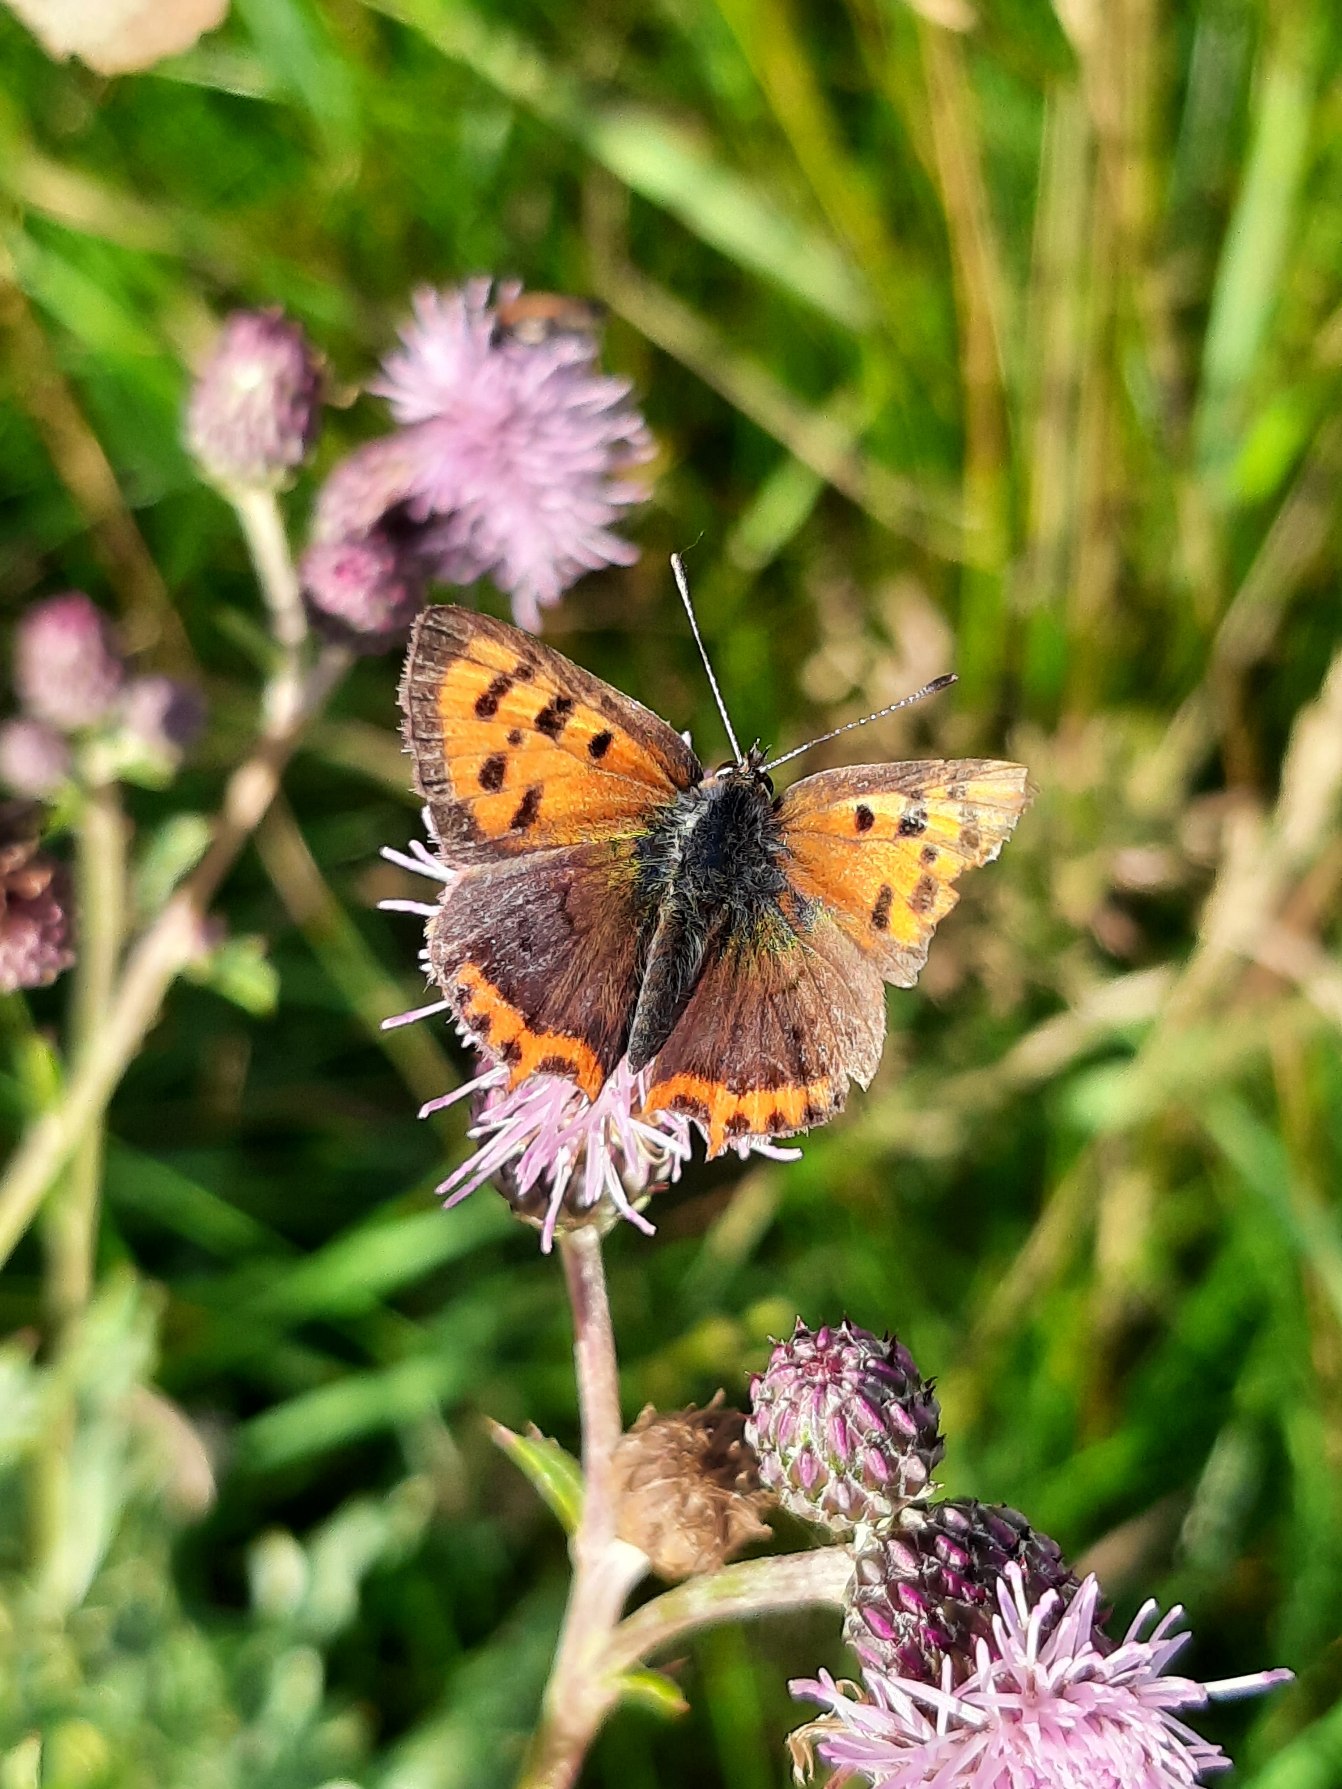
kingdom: Animalia
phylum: Arthropoda
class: Insecta
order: Lepidoptera
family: Lycaenidae
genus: Lycaena
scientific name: Lycaena phlaeas
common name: Lille ildfugl
